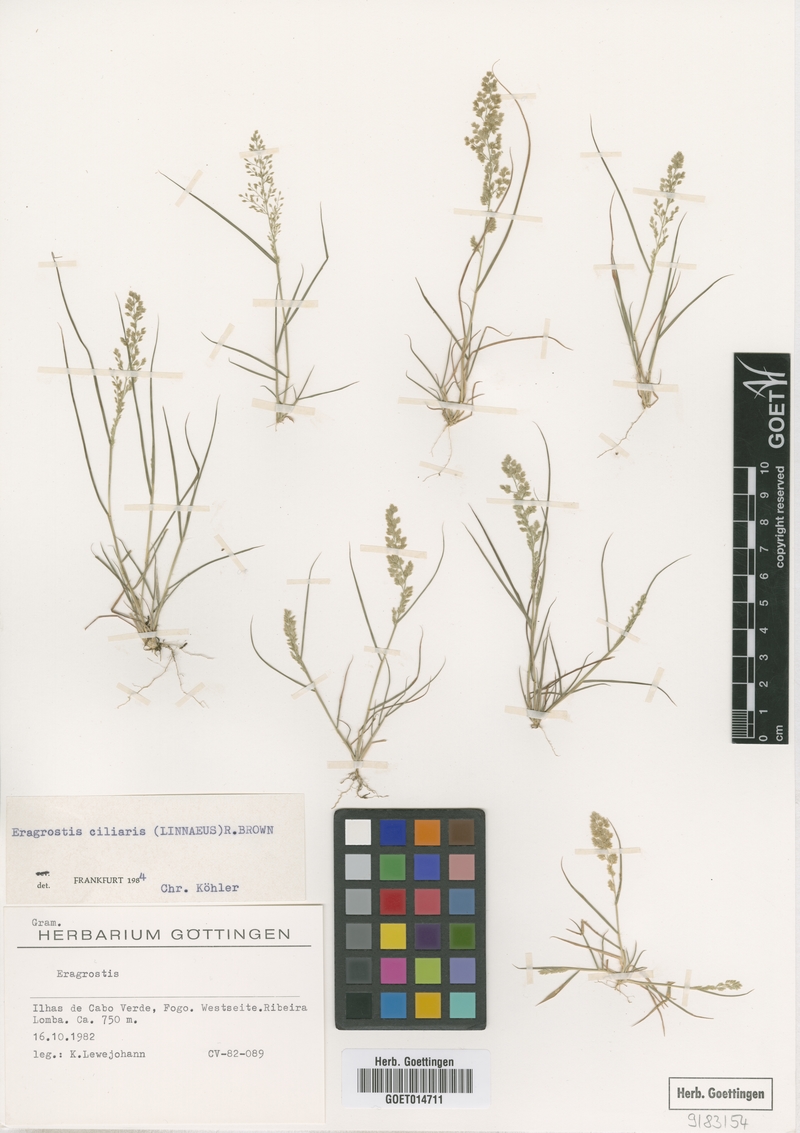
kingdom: Plantae
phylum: Tracheophyta
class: Liliopsida
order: Poales
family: Poaceae
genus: Eragrostis
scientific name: Eragrostis ciliaris
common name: Gophertail lovegrass
